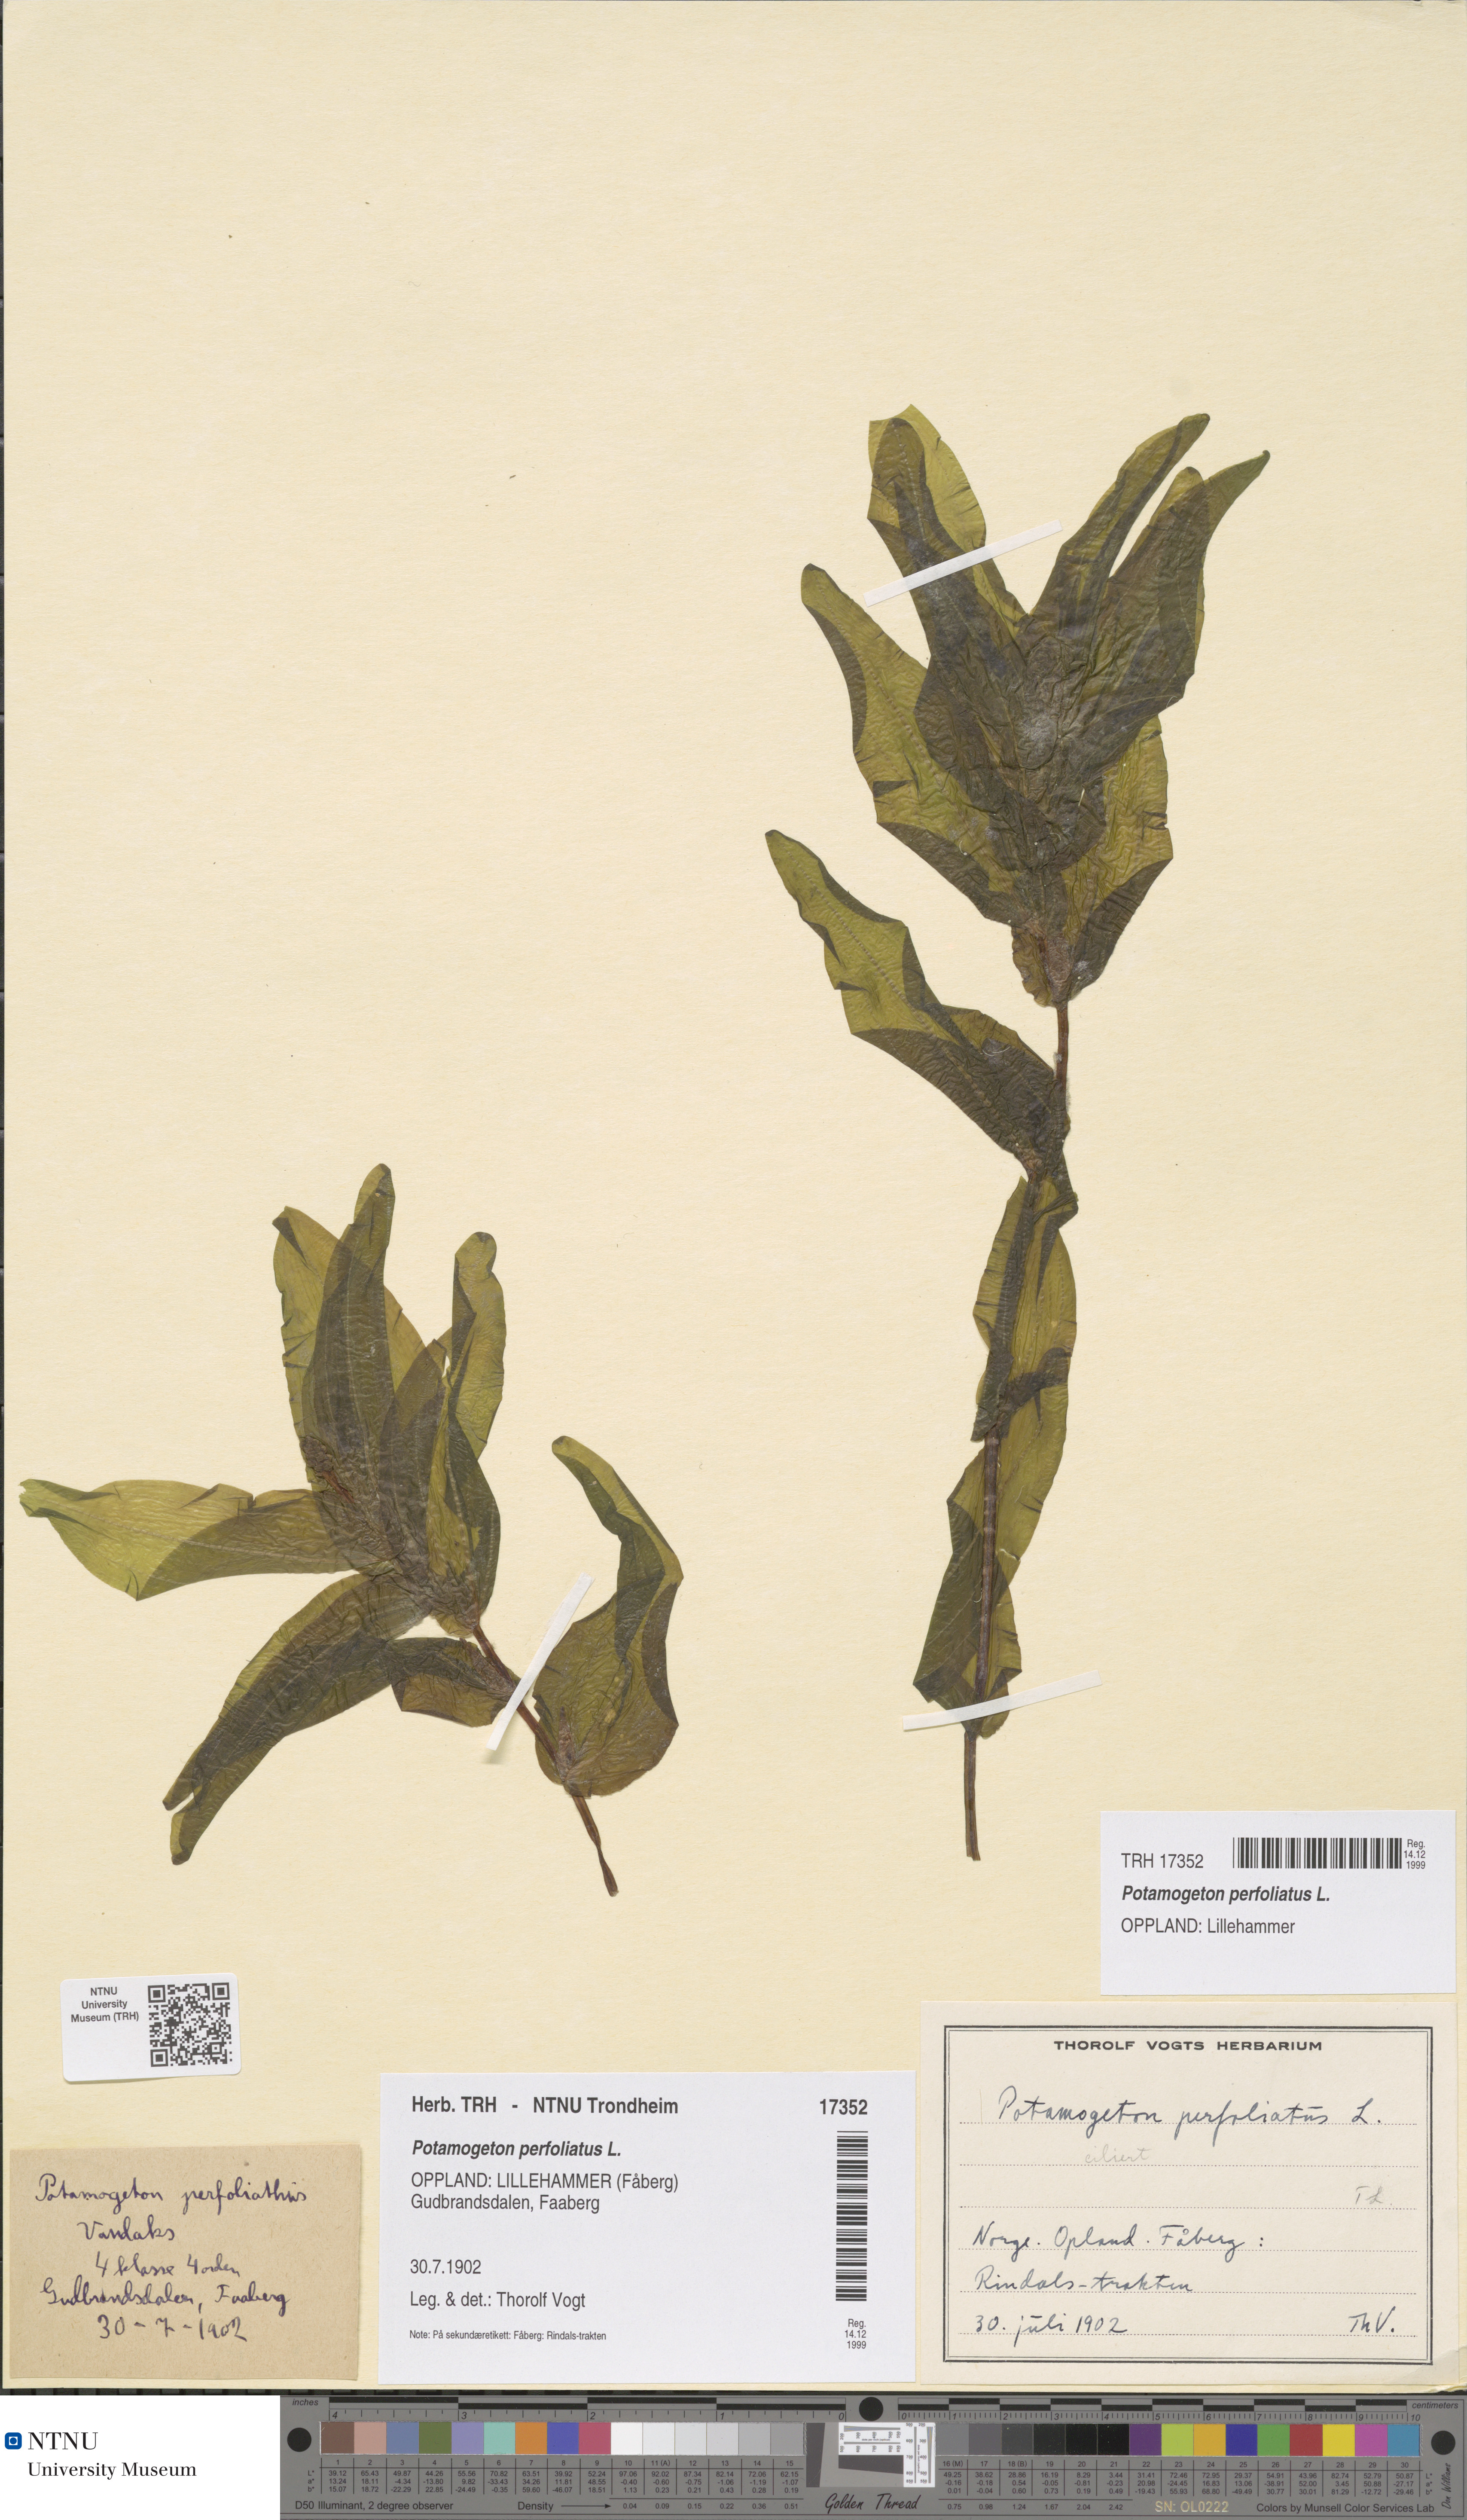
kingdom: Plantae
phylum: Tracheophyta
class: Liliopsida
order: Alismatales
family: Potamogetonaceae
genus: Potamogeton
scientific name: Potamogeton perfoliatus
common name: Perfoliate pondweed
